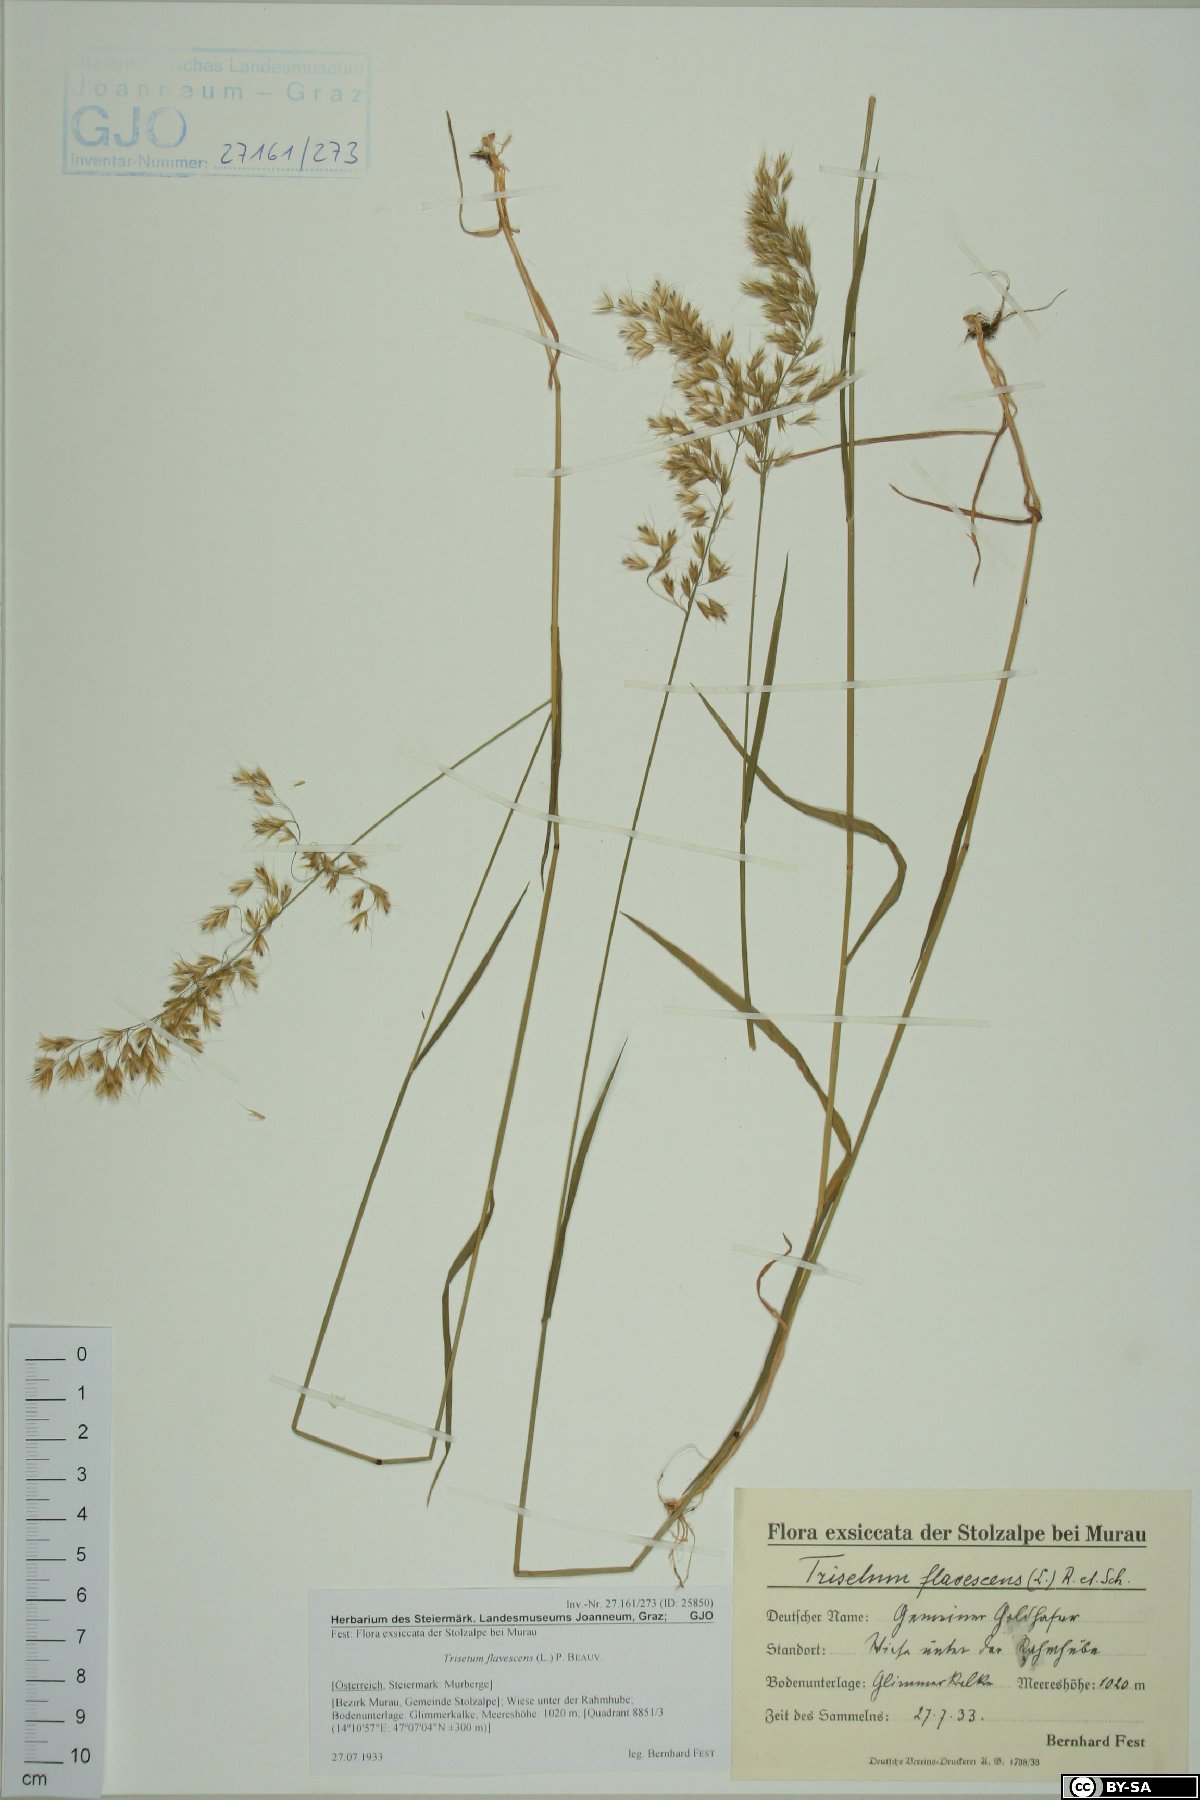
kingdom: Plantae
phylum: Tracheophyta
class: Liliopsida
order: Poales
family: Poaceae
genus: Trisetum
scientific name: Trisetum flavescens
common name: Yellow oat-grass
